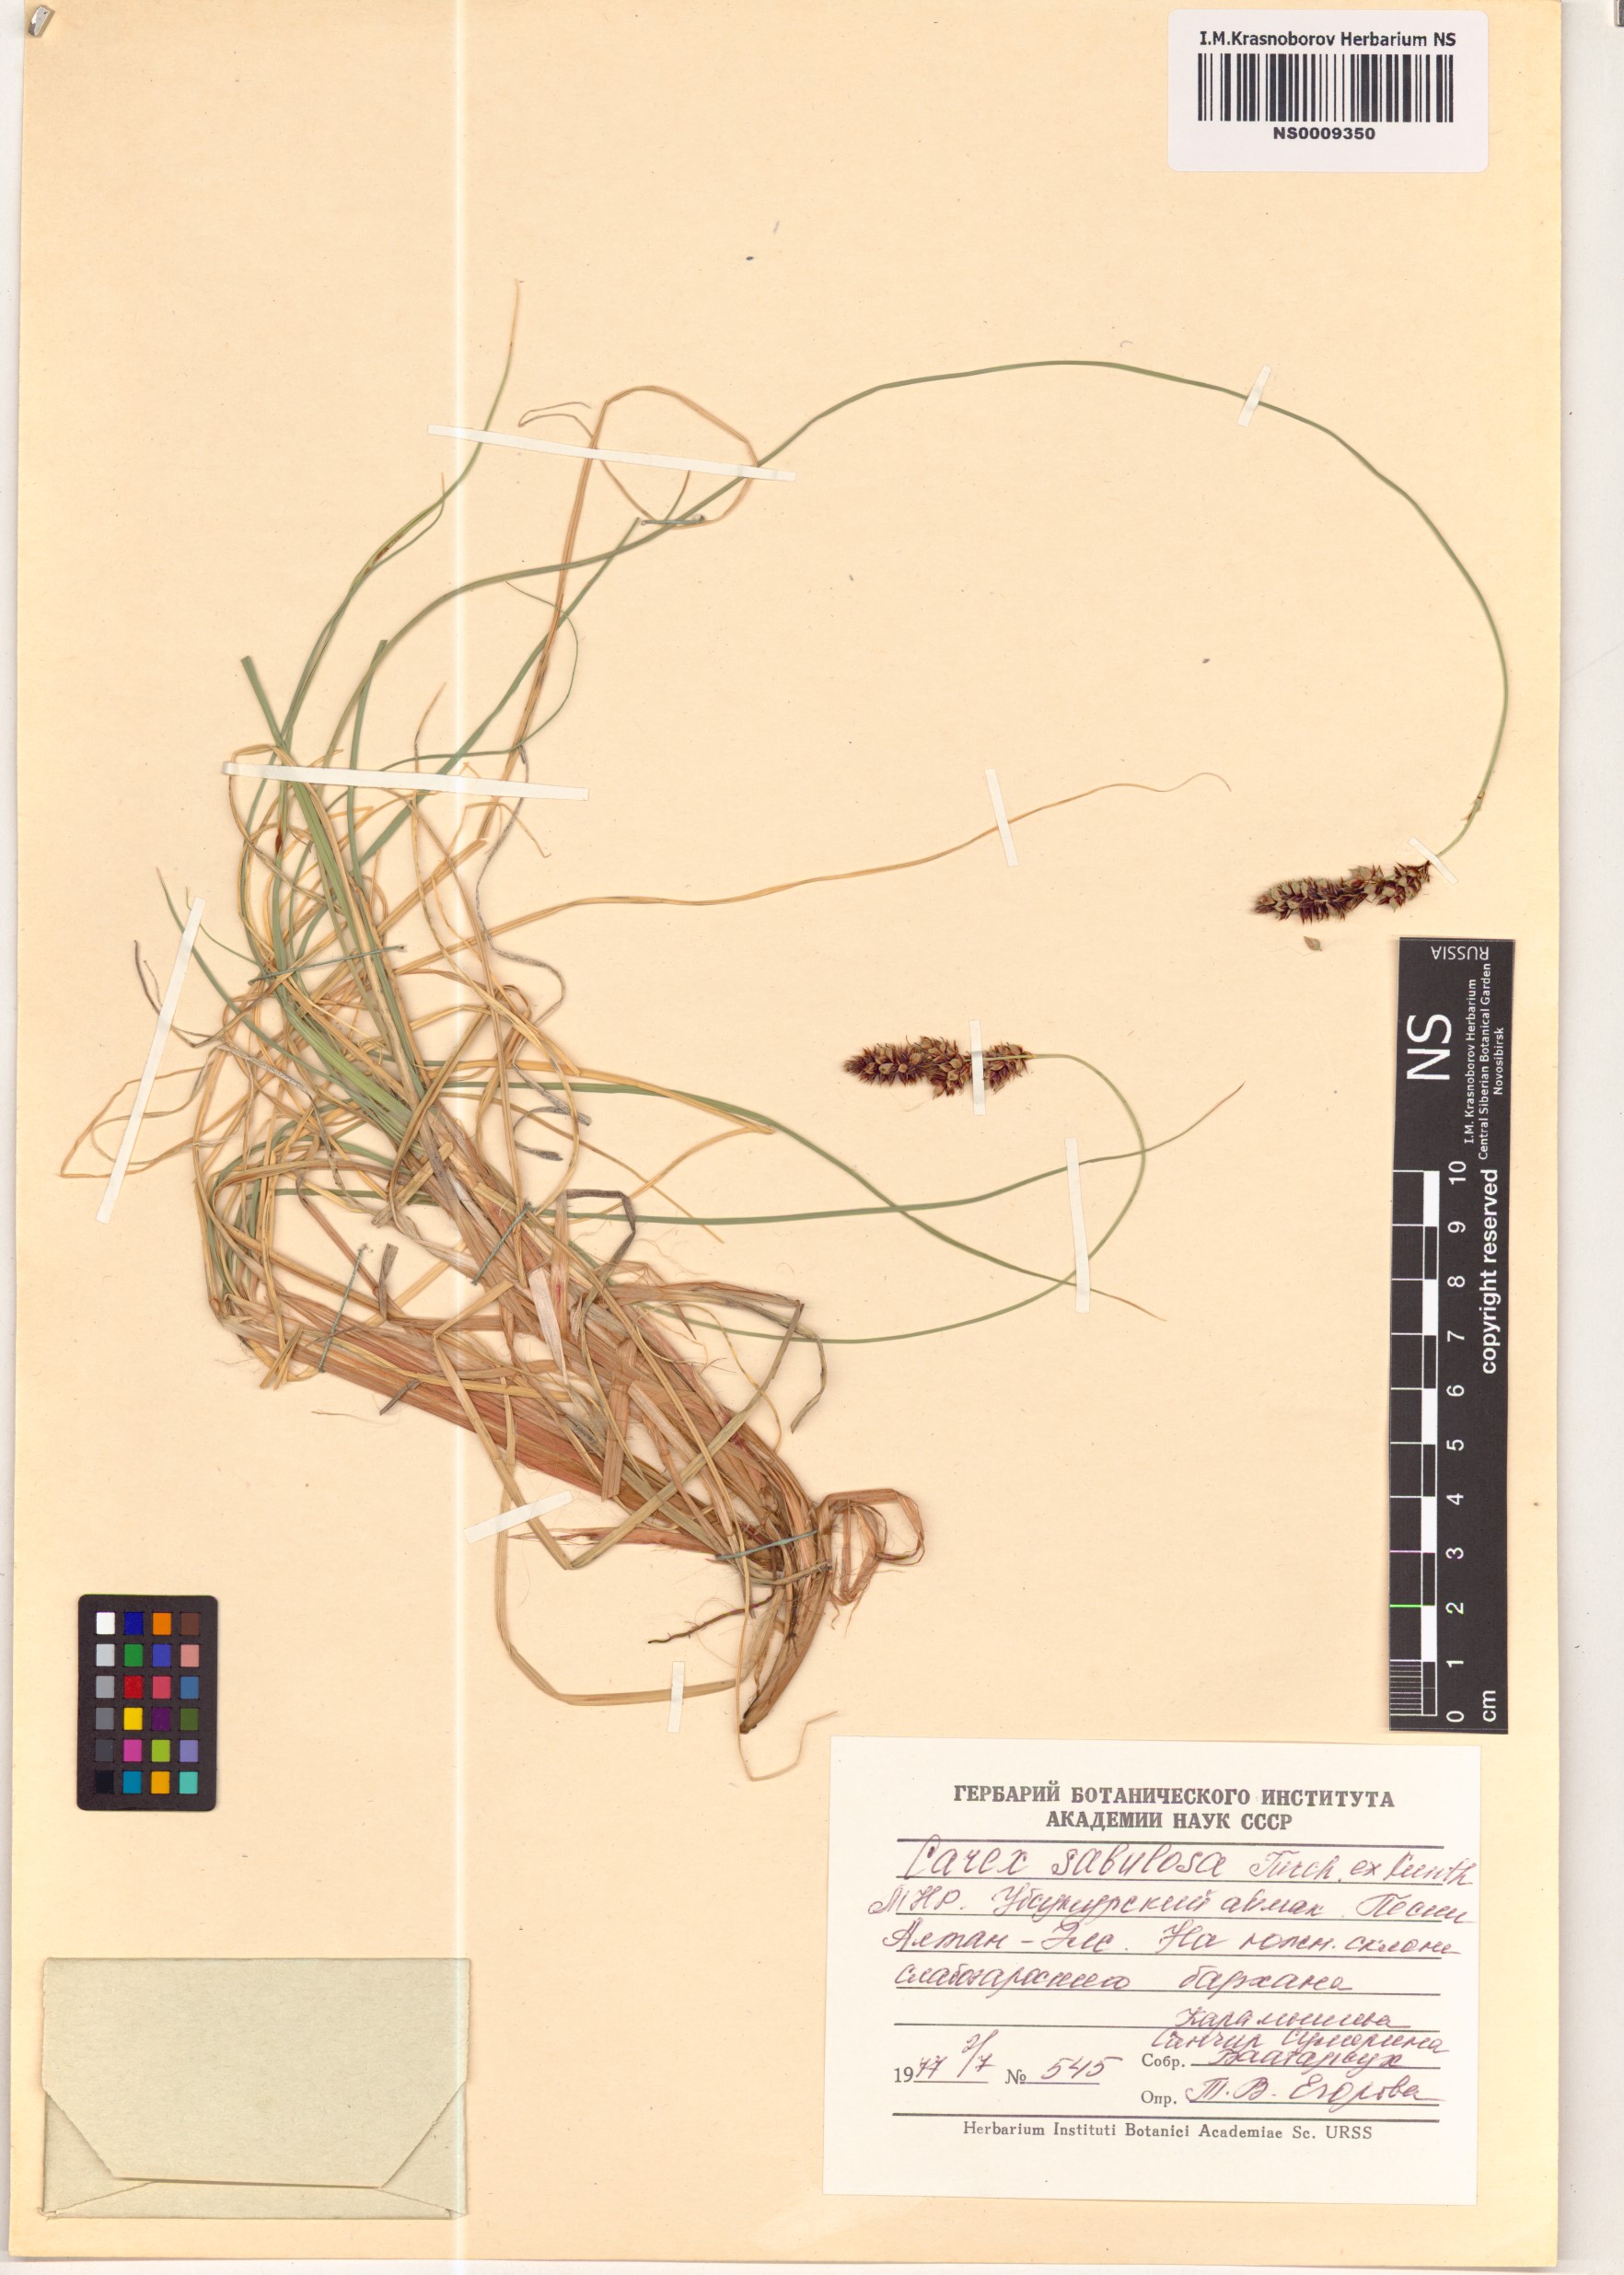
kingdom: Plantae
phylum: Tracheophyta
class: Liliopsida
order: Poales
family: Cyperaceae
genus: Carex
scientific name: Carex sabulosa
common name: Baikal sedge
